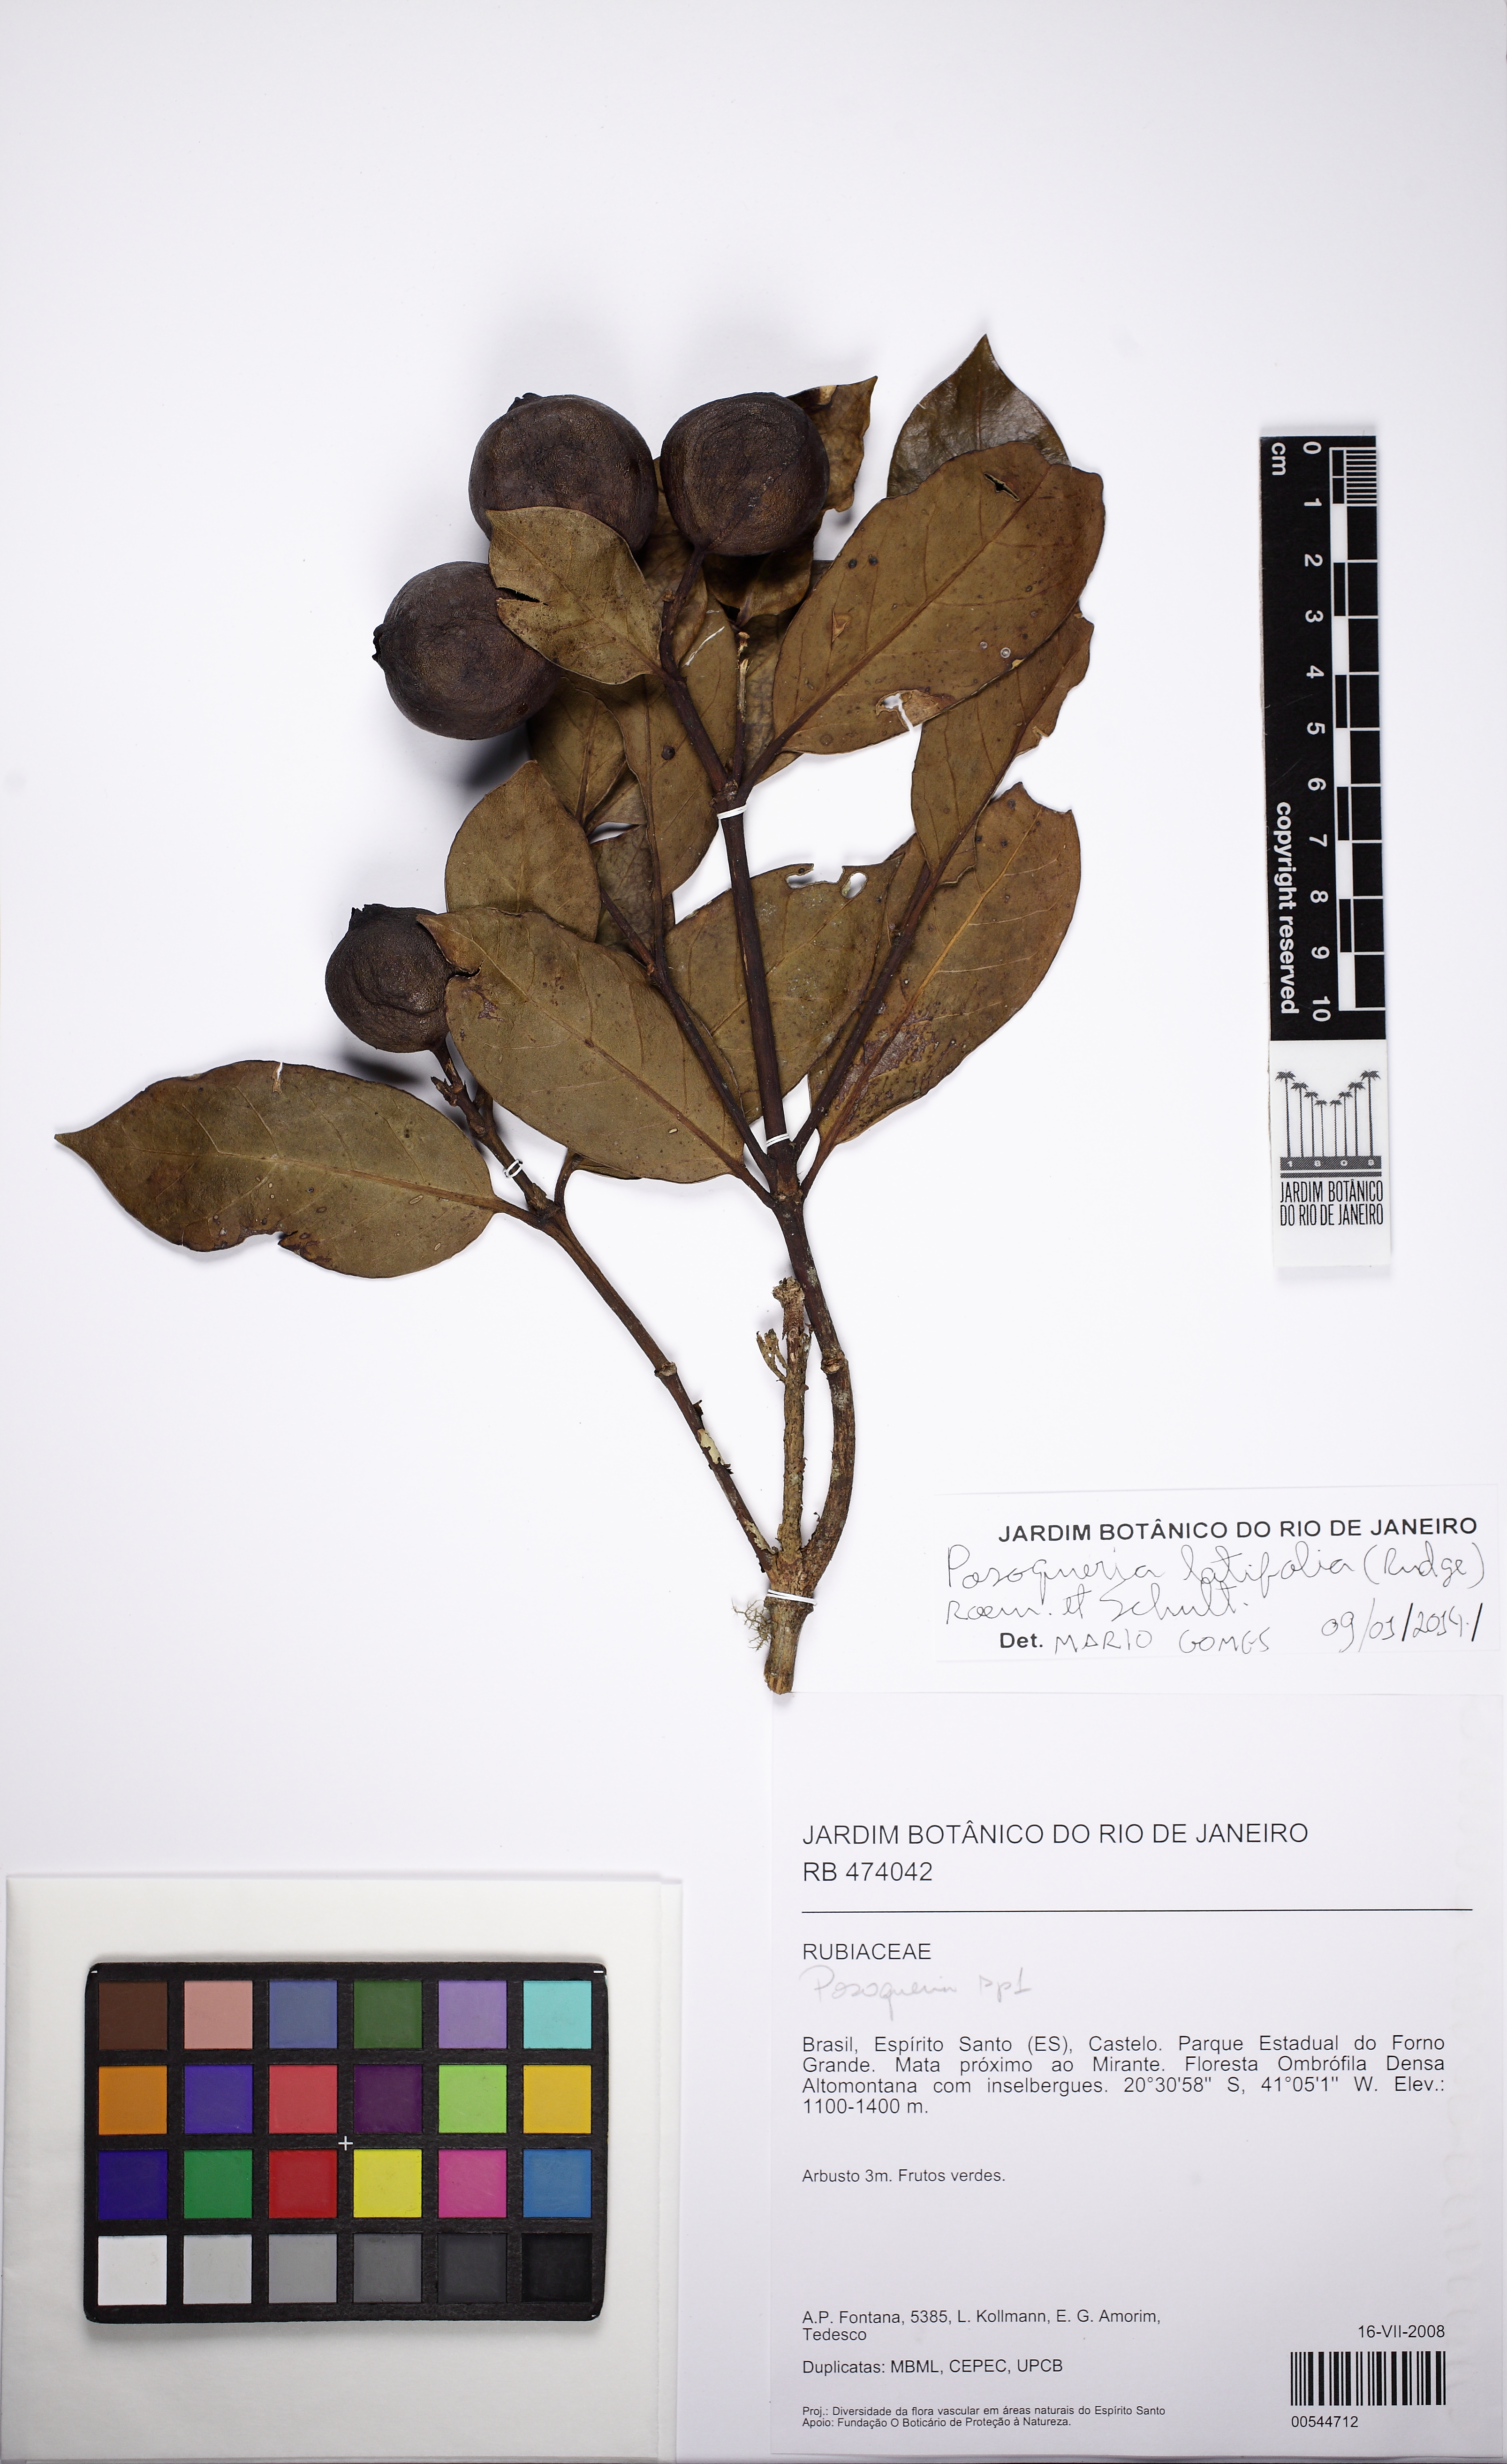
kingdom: Plantae
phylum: Tracheophyta
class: Magnoliopsida
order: Gentianales
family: Rubiaceae
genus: Posoqueria
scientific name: Posoqueria latifolia
